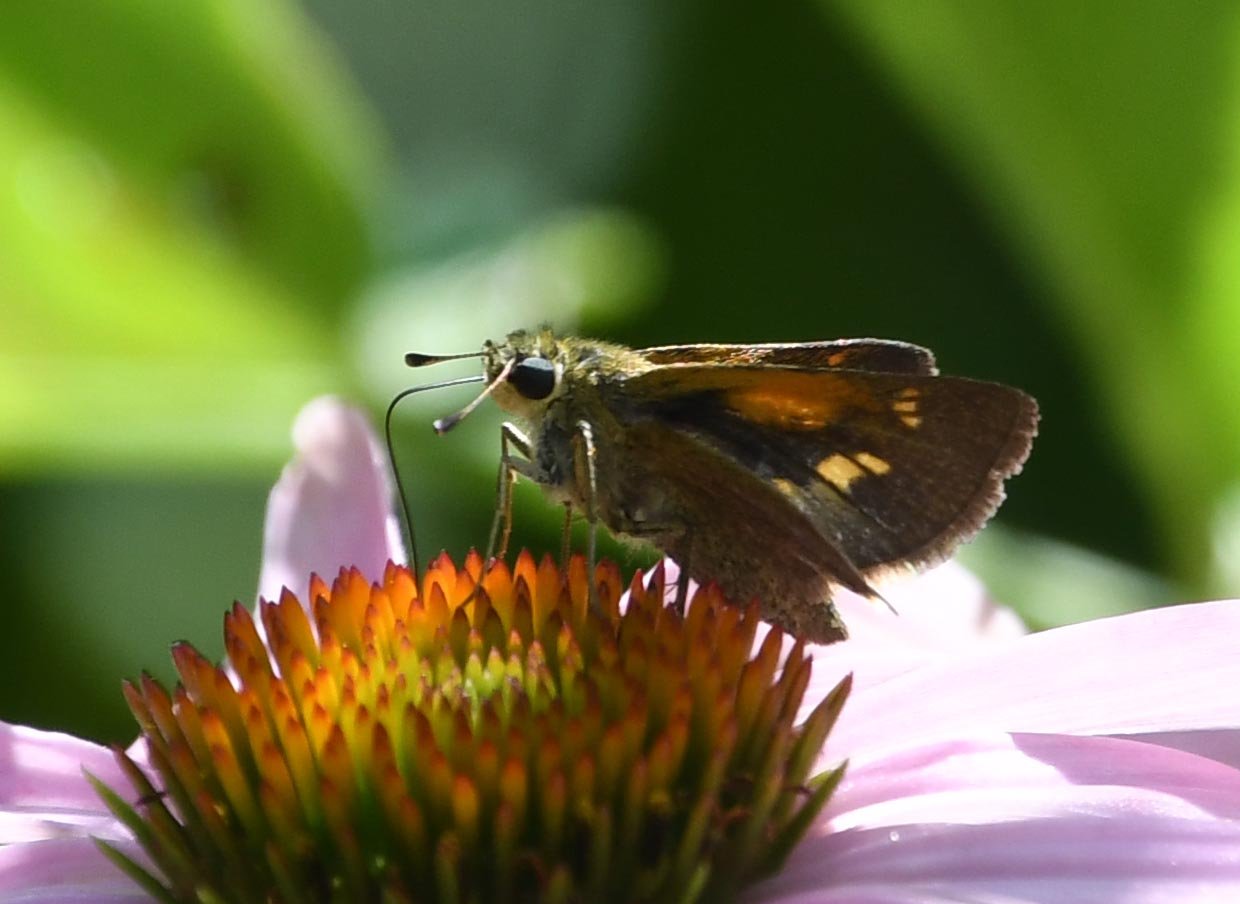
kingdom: Animalia
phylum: Arthropoda
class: Insecta
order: Lepidoptera
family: Hesperiidae
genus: Polites
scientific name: Polites themistocles
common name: Tawny-edged Skipper
